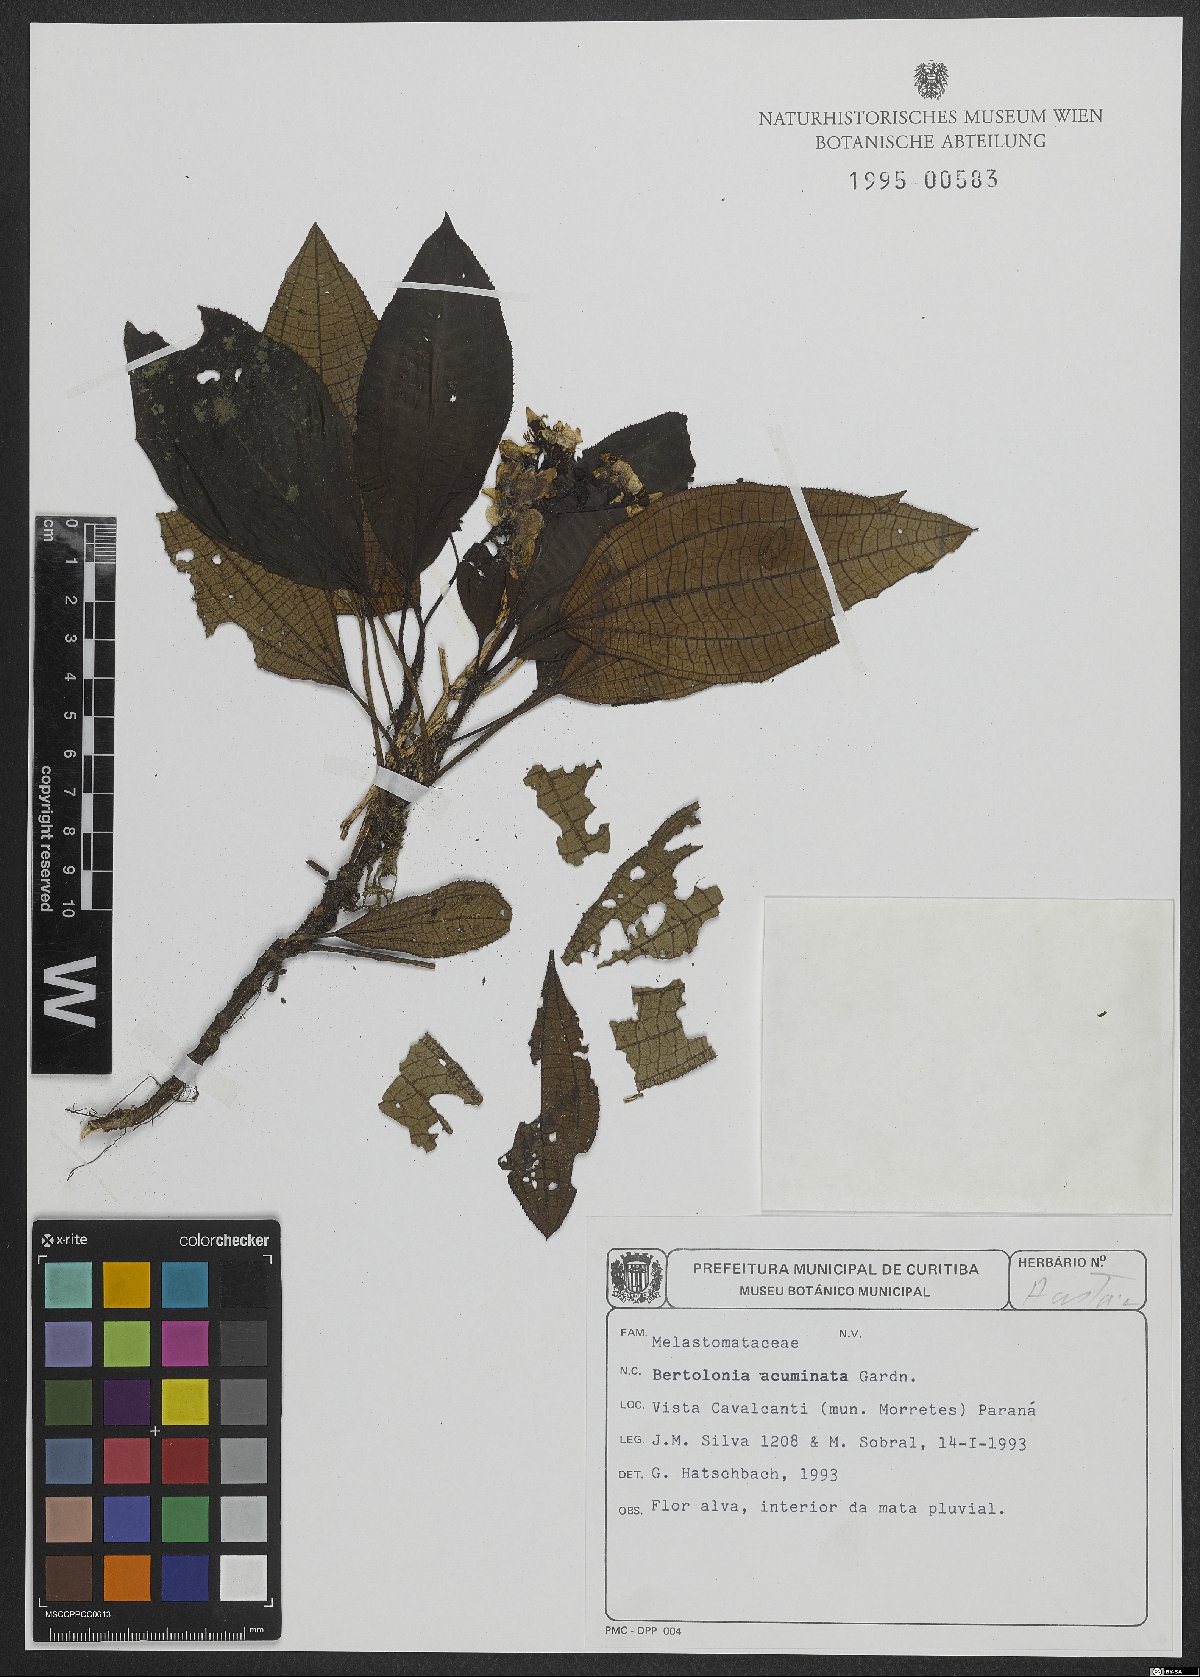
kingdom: Plantae
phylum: Tracheophyta
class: Magnoliopsida
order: Myrtales
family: Melastomataceae
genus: Bertolonia
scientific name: Bertolonia acuminata
